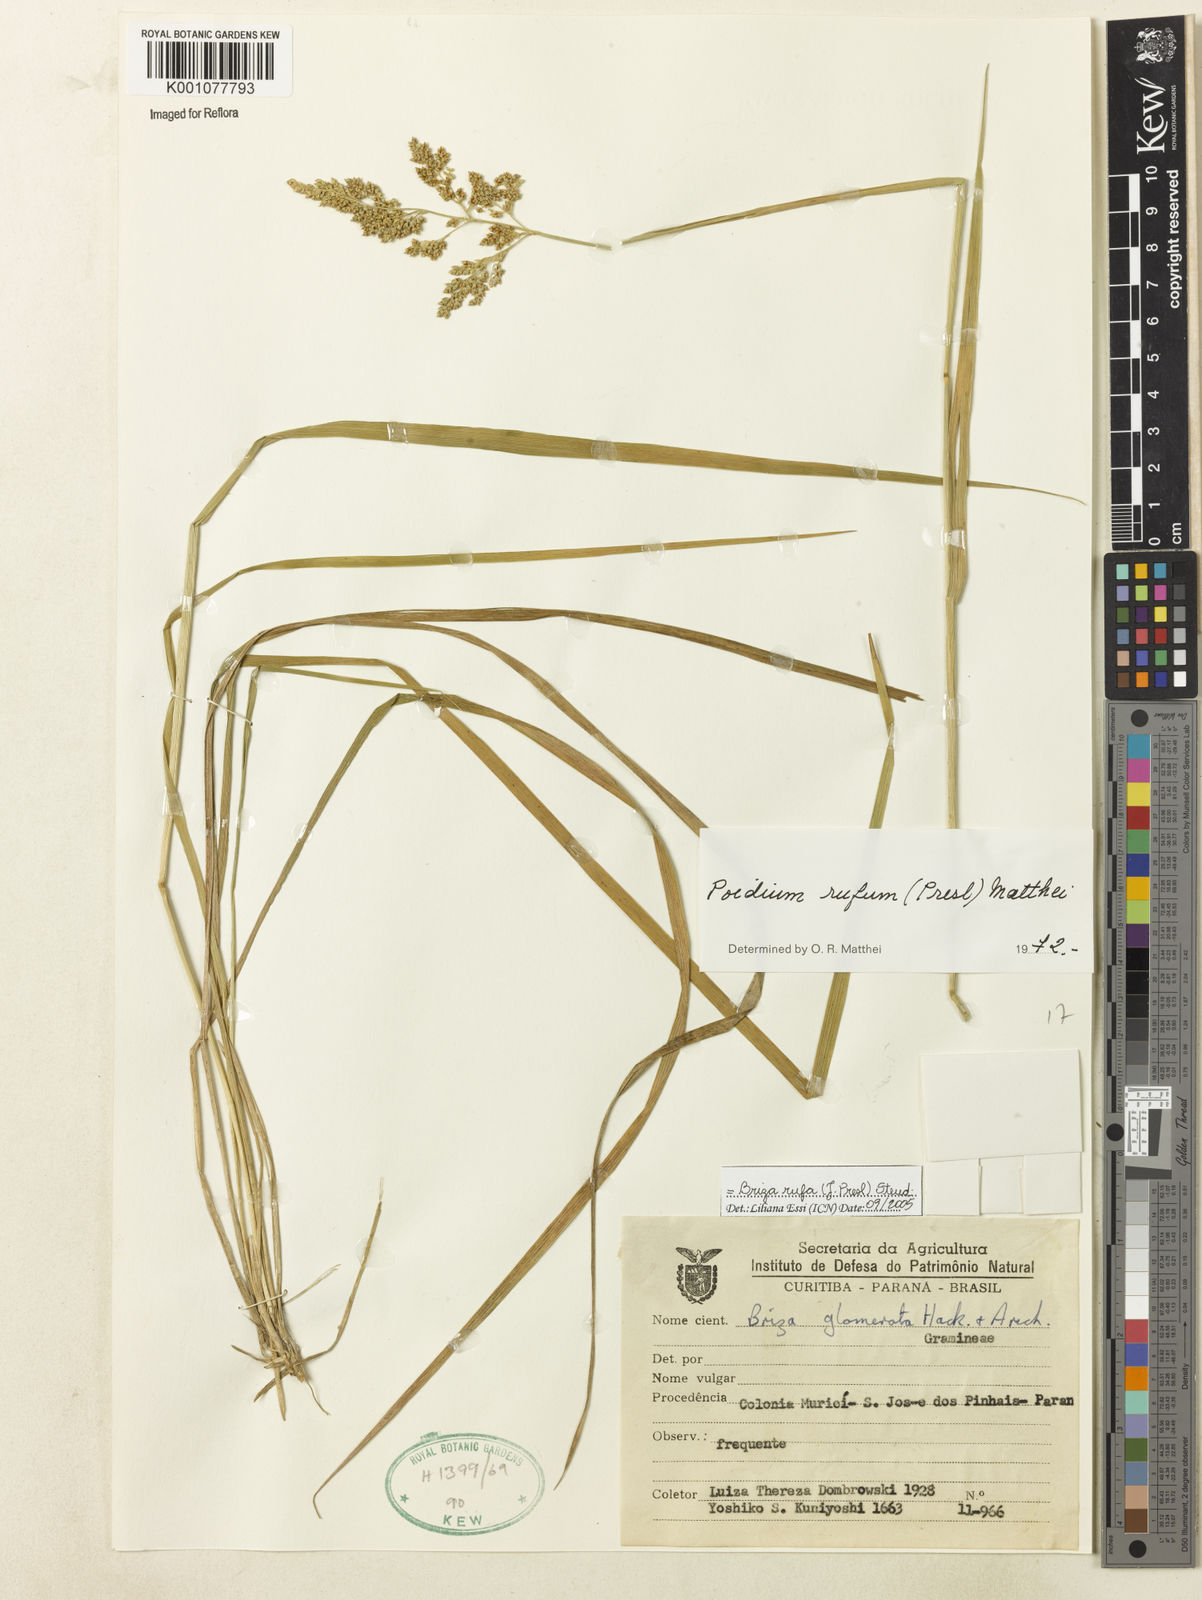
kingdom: Plantae
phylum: Tracheophyta
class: Liliopsida
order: Poales
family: Poaceae
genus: Lombardochloa
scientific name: Lombardochloa rufa
